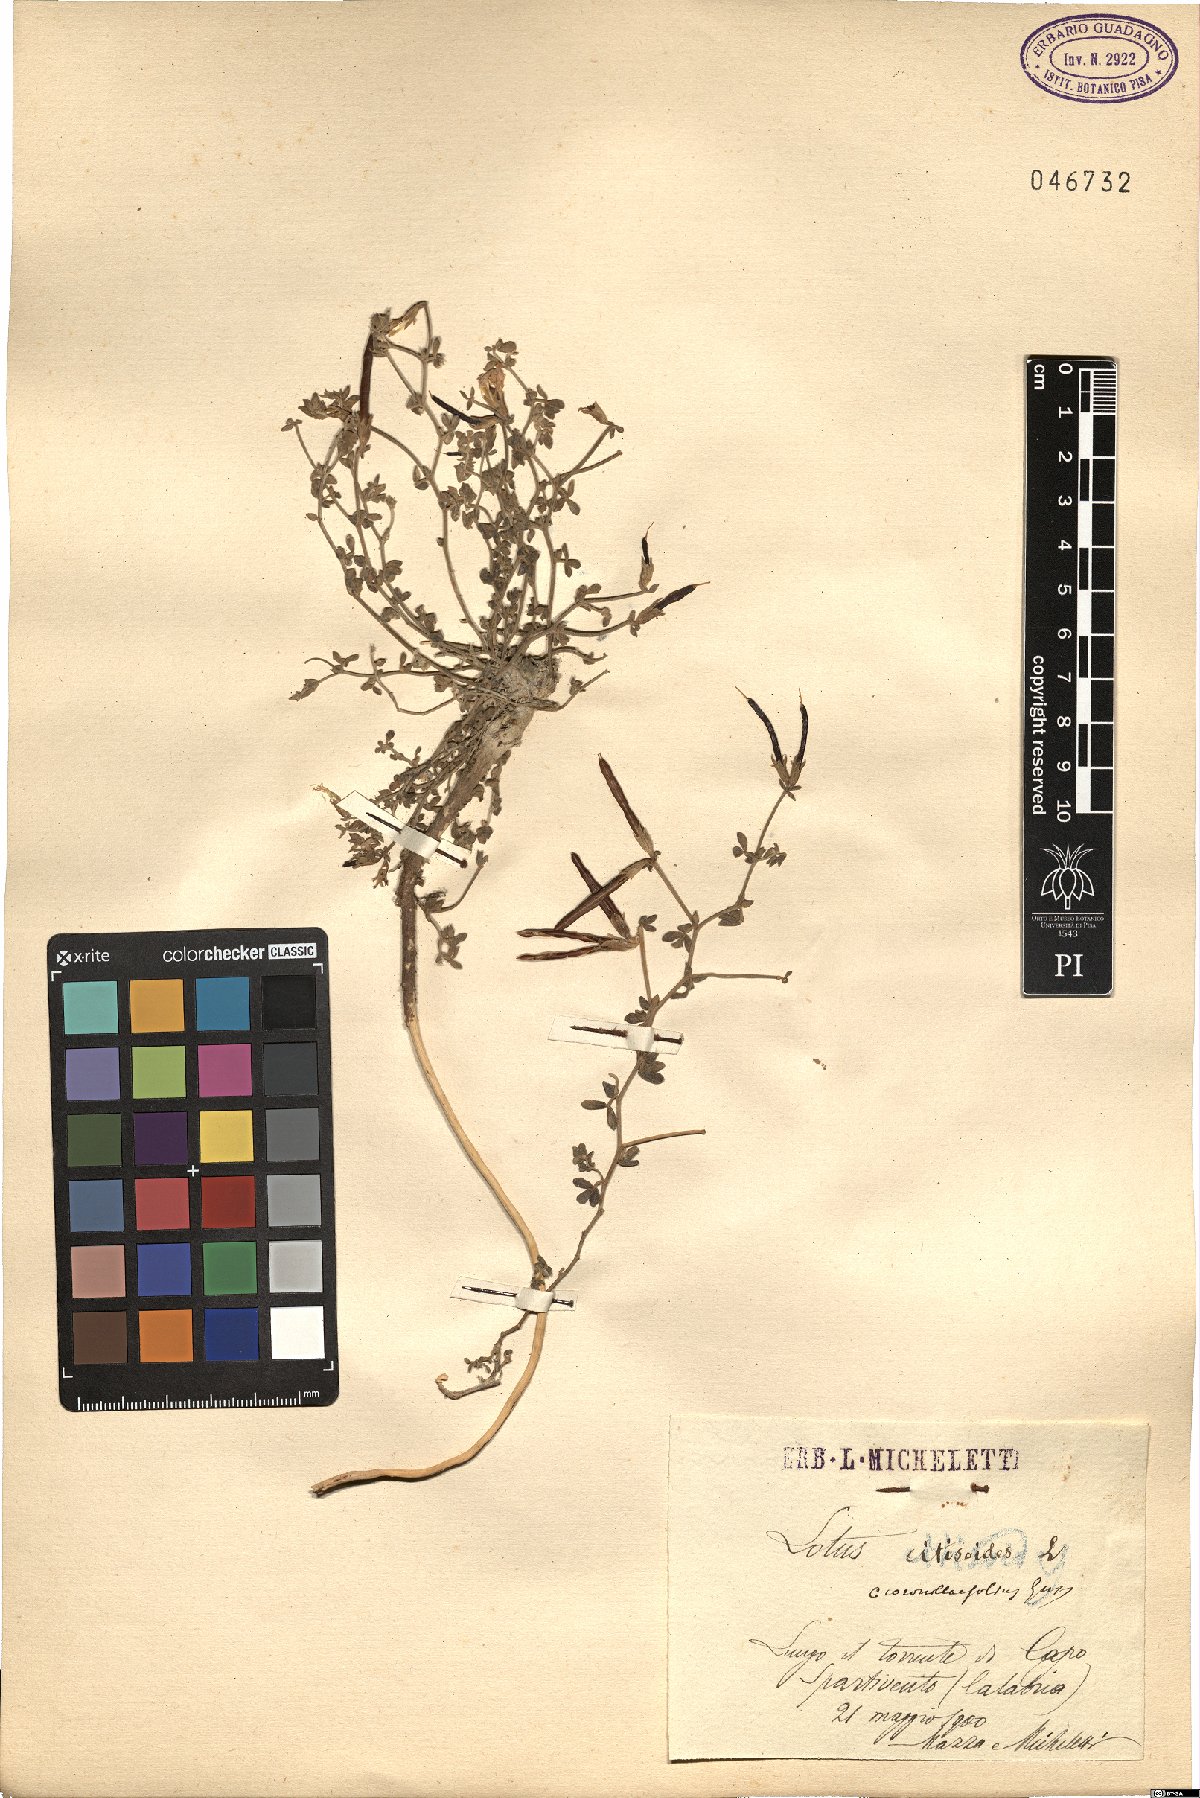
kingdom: Plantae
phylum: Tracheophyta
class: Magnoliopsida
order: Fabales
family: Fabaceae
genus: Lotus
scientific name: Lotus cytisoides
